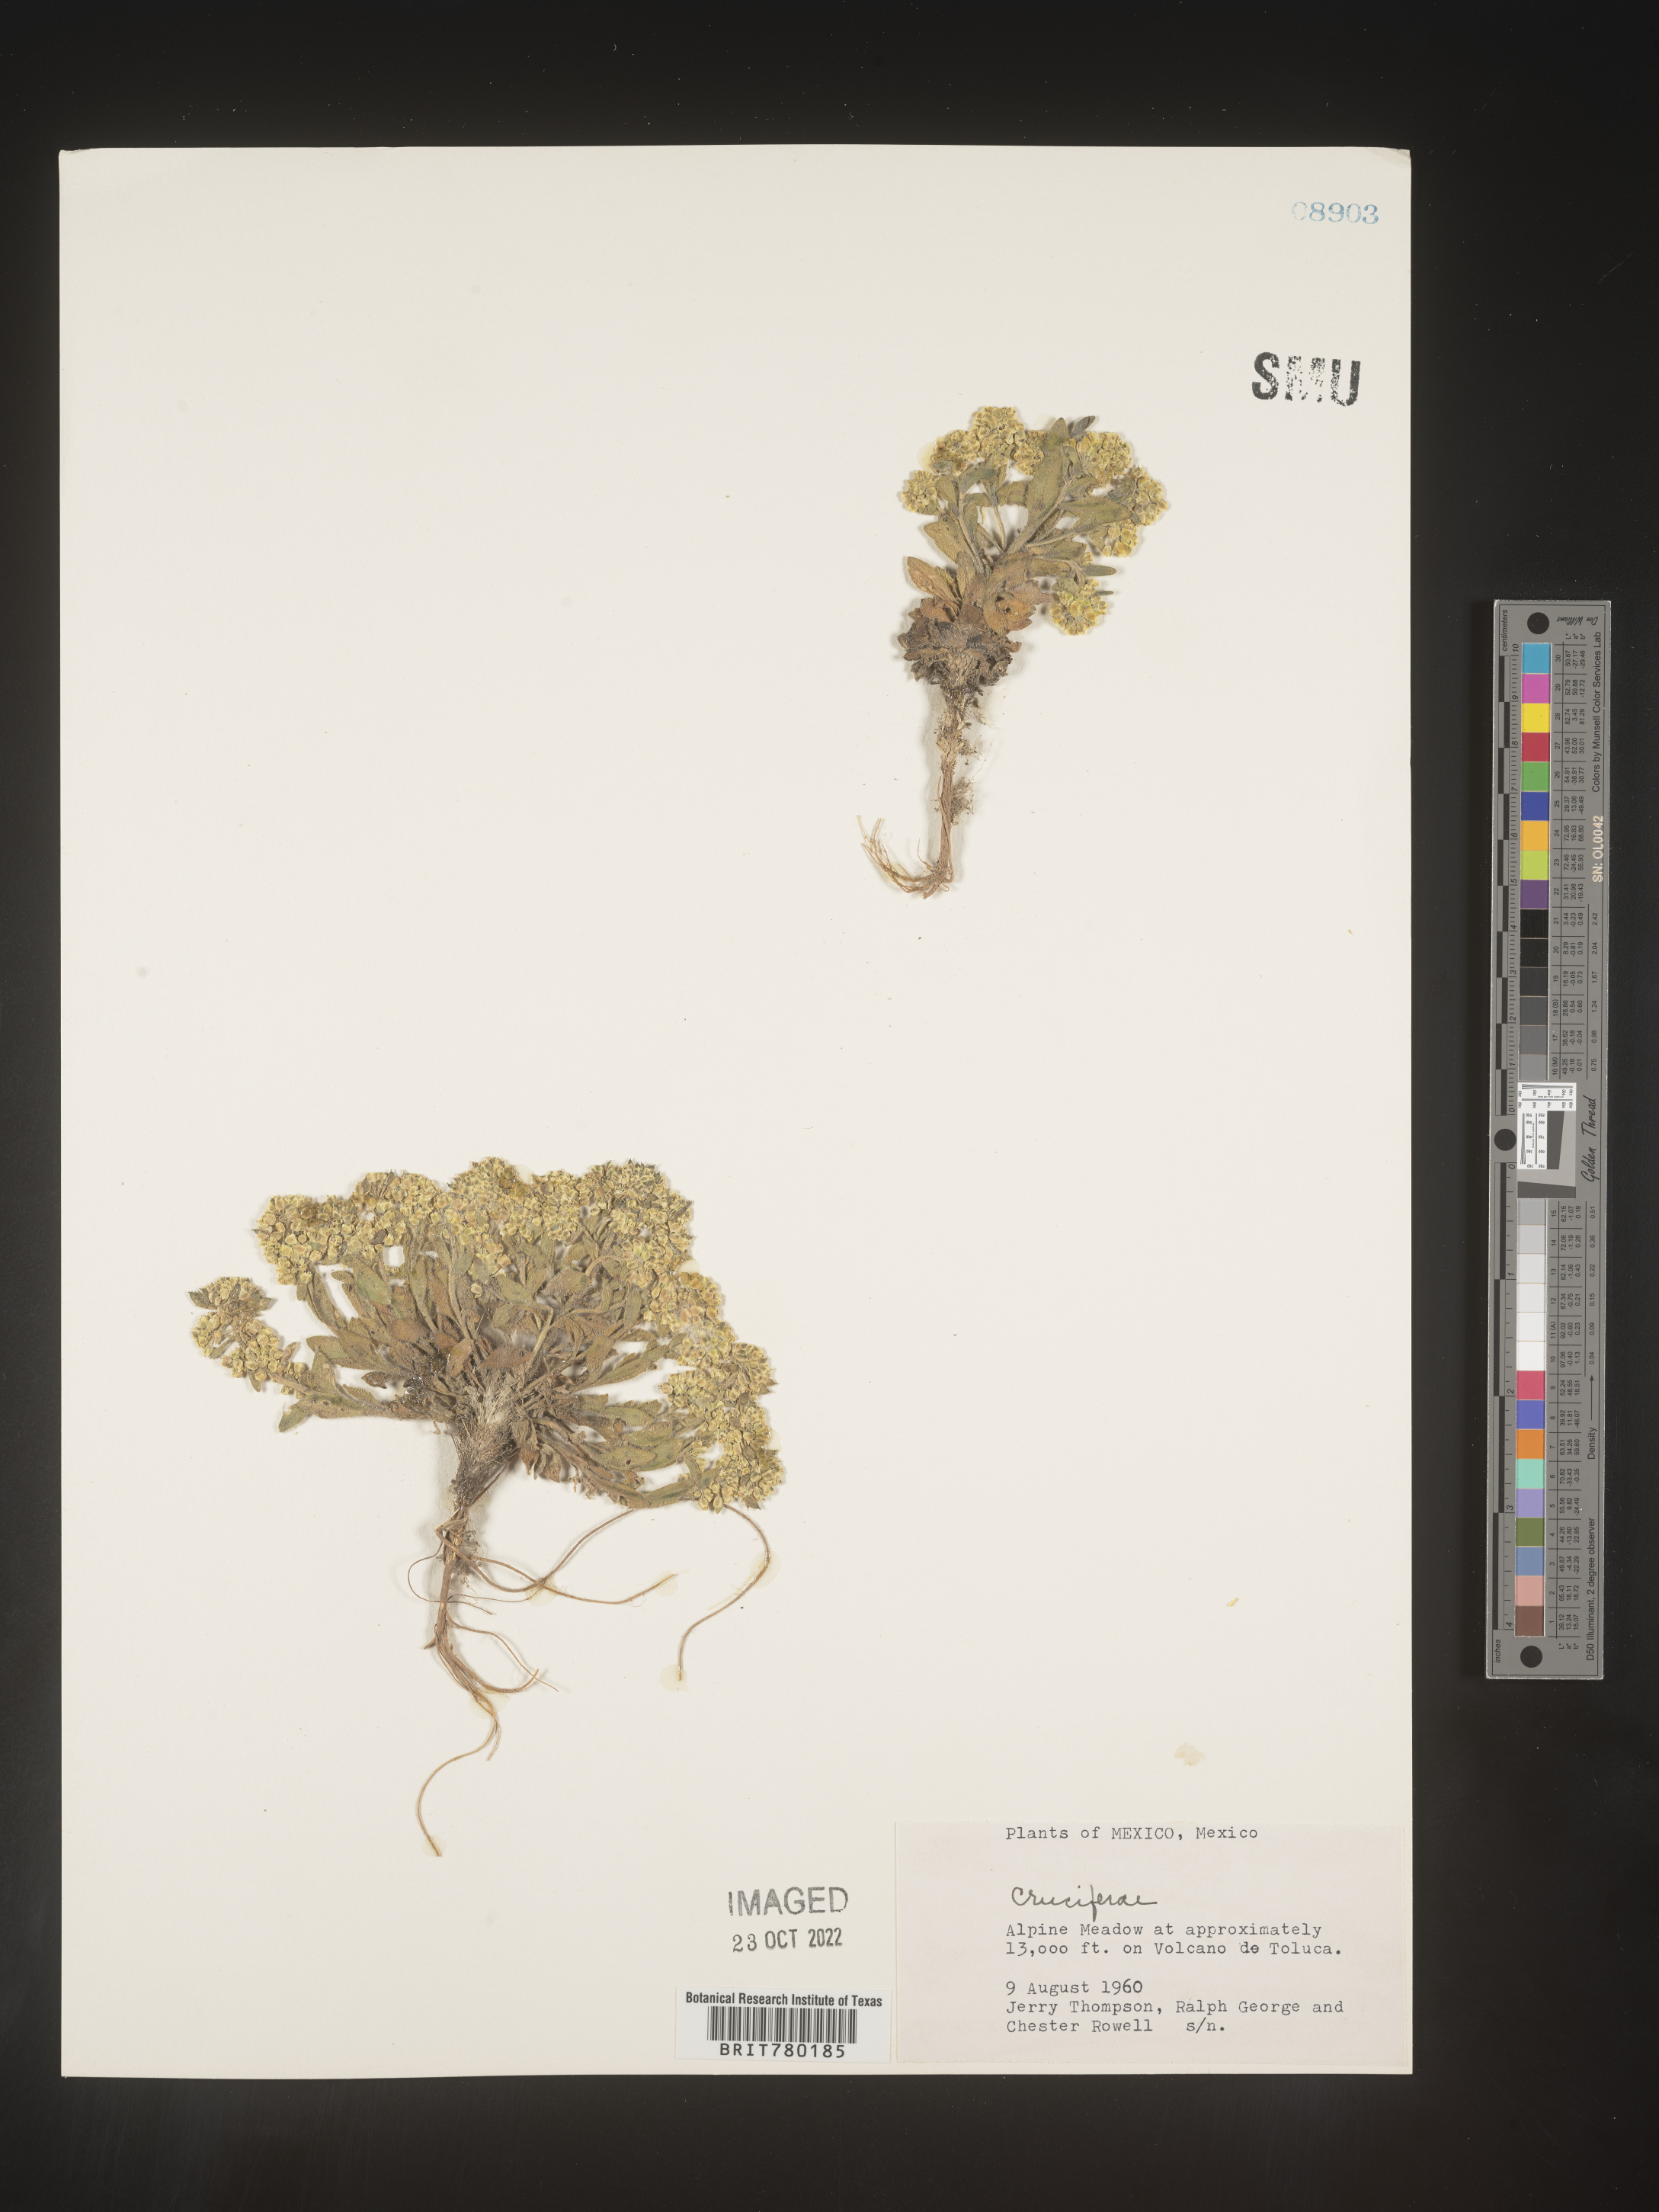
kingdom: Plantae
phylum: Tracheophyta
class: Magnoliopsida
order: Brassicales
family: Brassicaceae
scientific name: Brassicaceae
